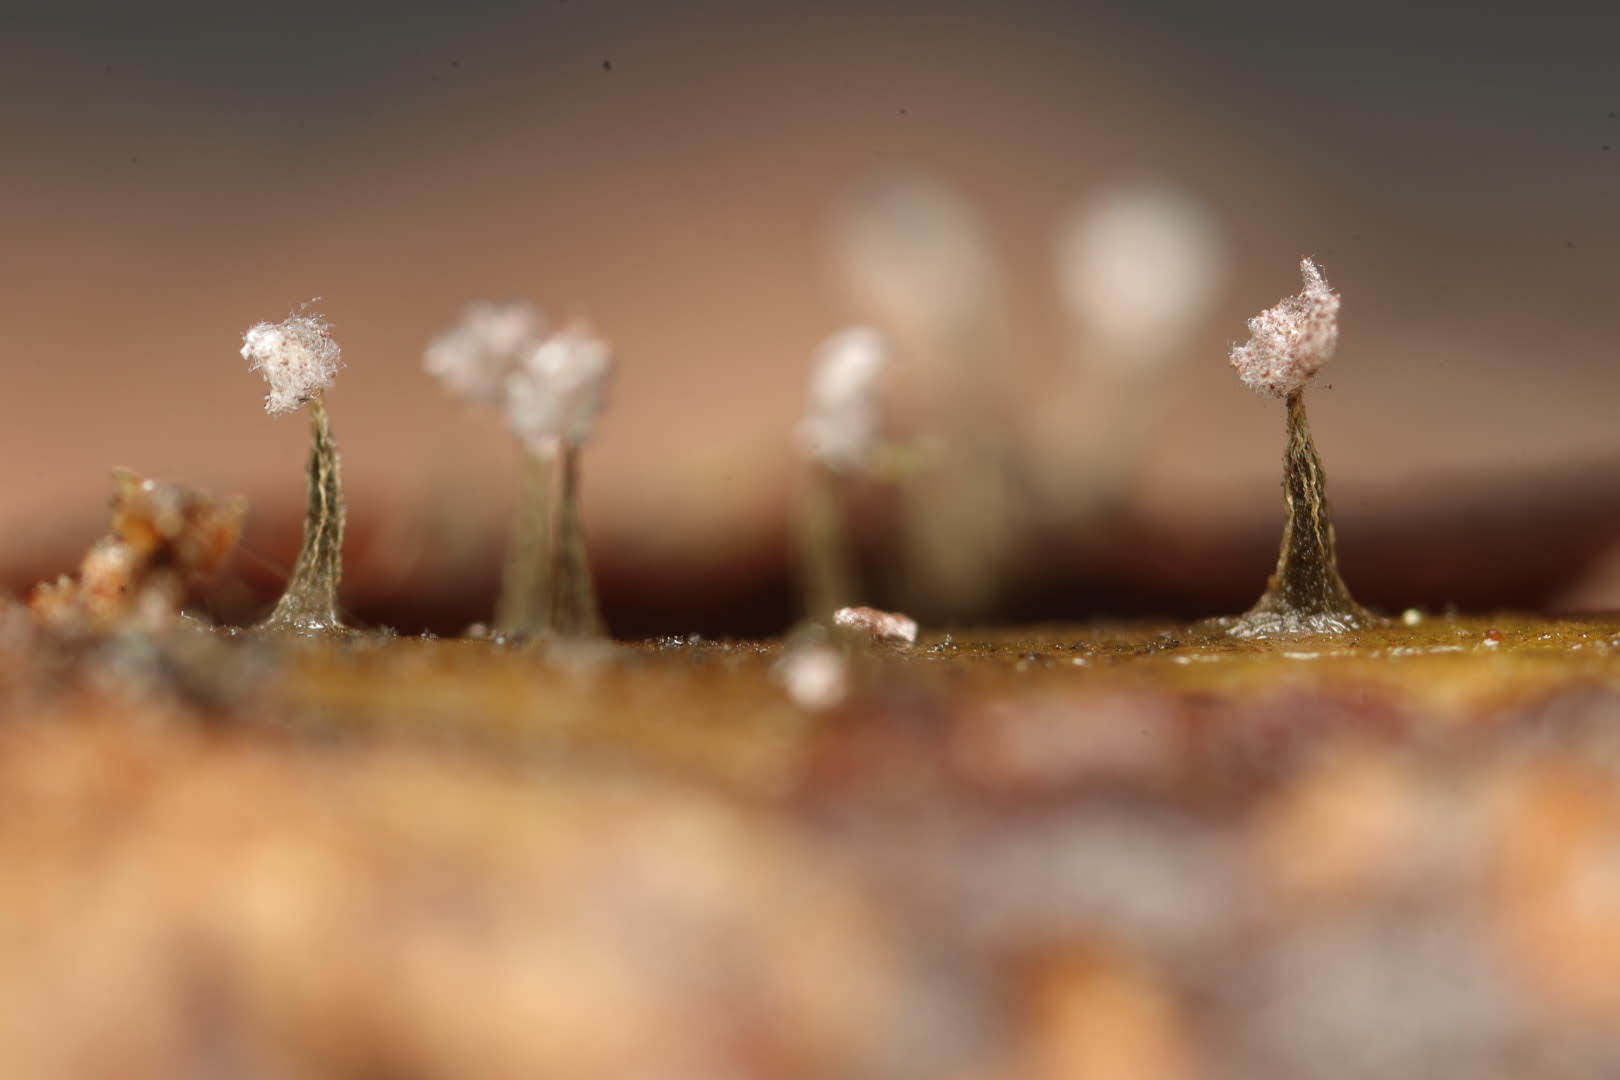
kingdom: Protozoa
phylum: Mycetozoa
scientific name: Mycetozoa
